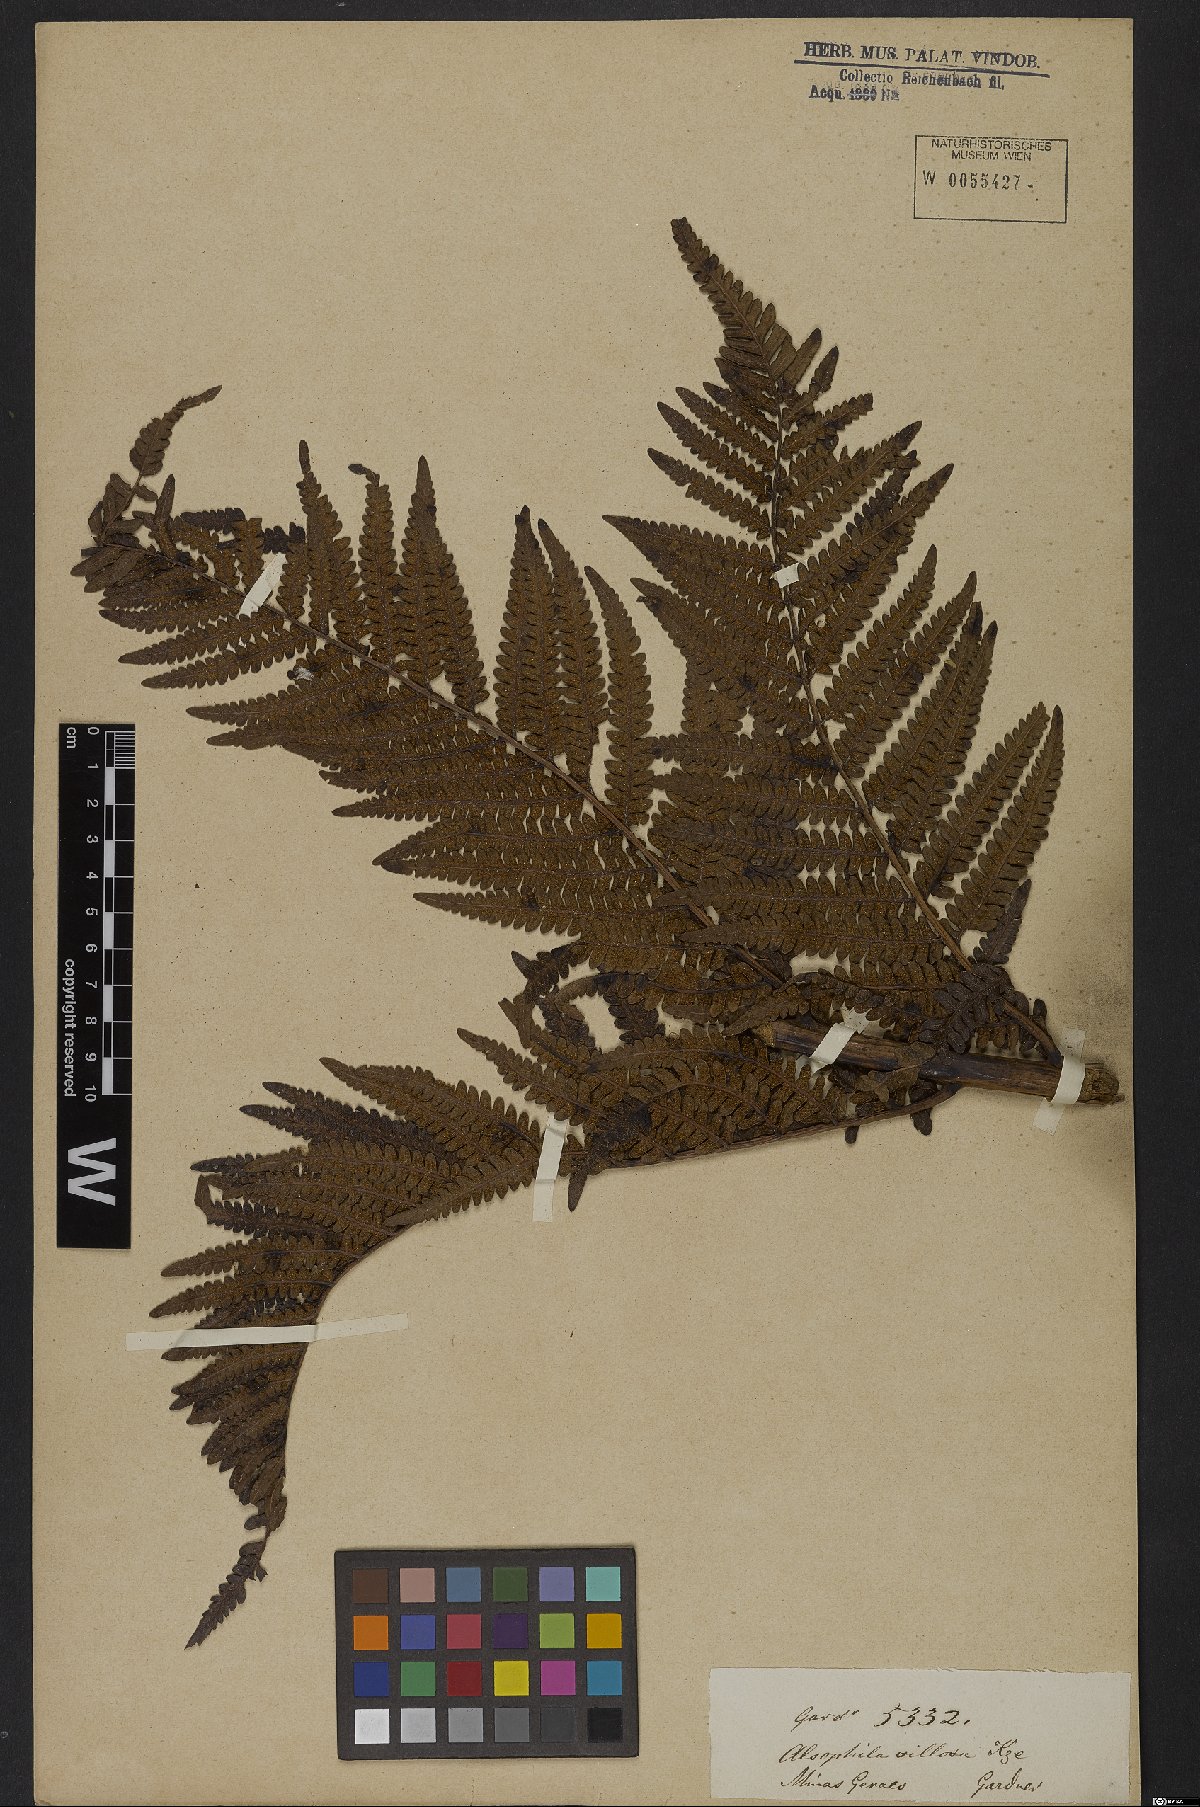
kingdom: Plantae
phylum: Tracheophyta
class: Polypodiopsida
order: Cyatheales
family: Cyatheaceae
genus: Cyathea
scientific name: Cyathea villosa
